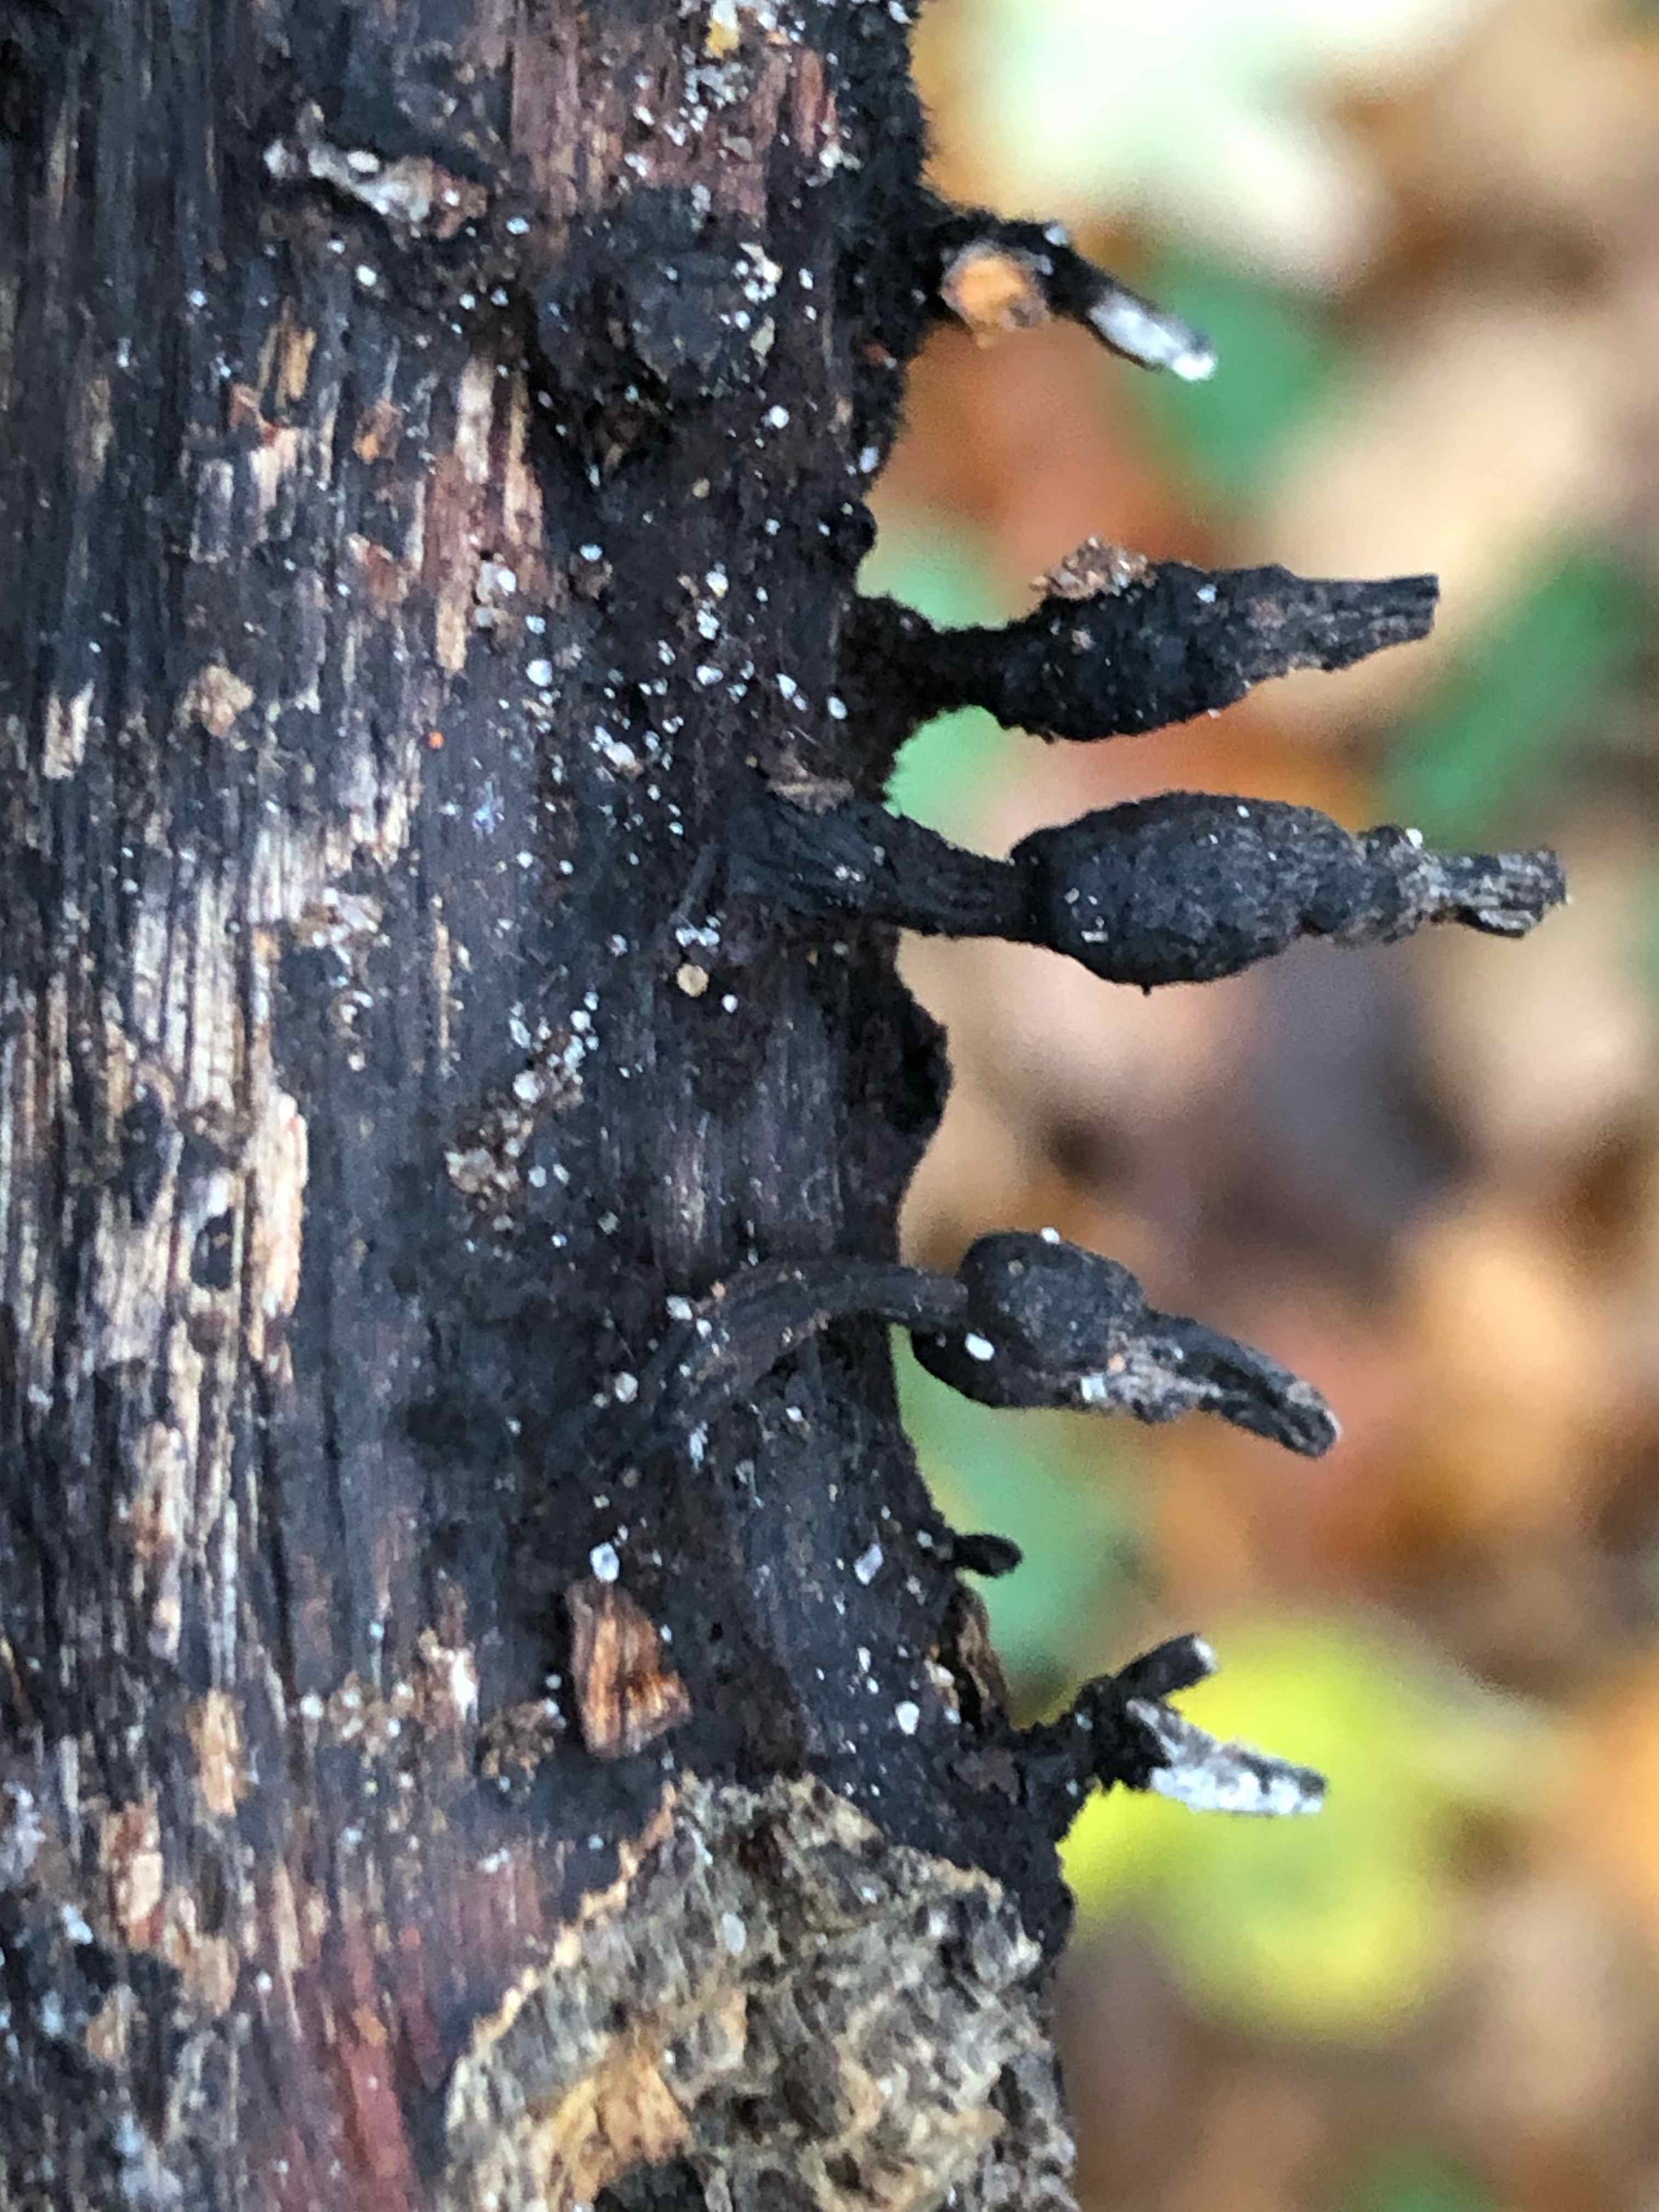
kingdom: Fungi
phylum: Ascomycota
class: Sordariomycetes
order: Xylariales
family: Xylariaceae
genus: Xylaria
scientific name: Xylaria hypoxylon
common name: grenet stødsvamp
